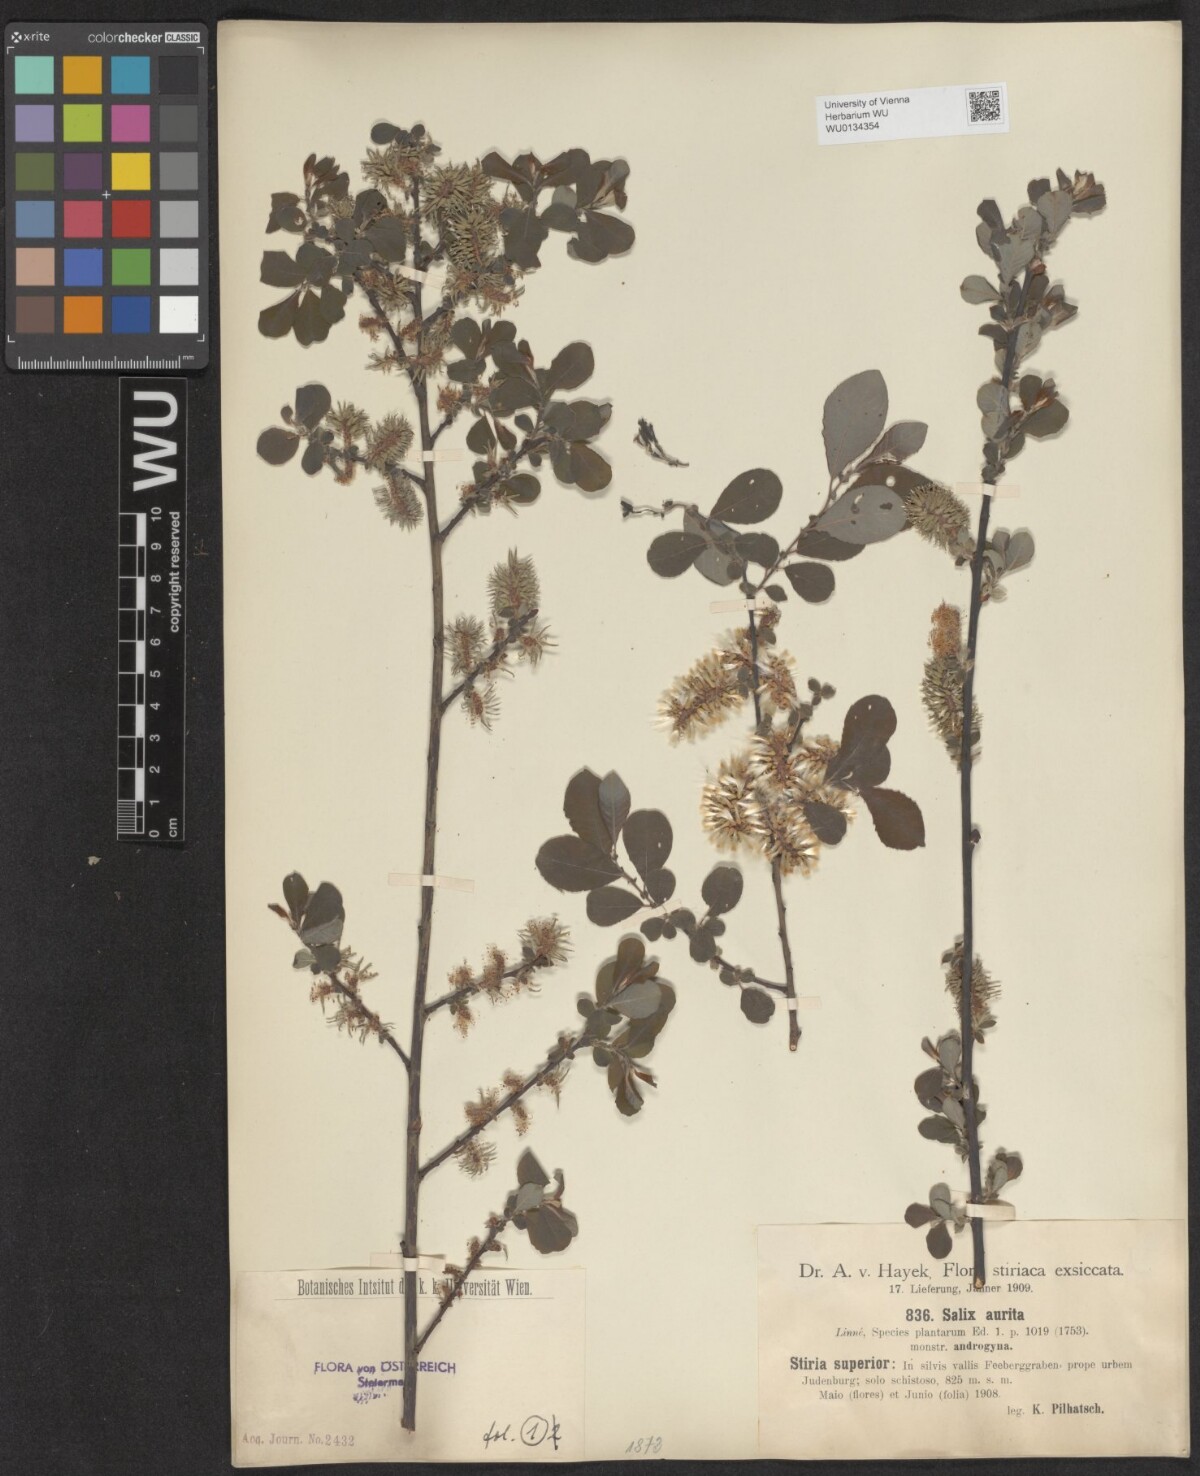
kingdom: Plantae
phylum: Tracheophyta
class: Magnoliopsida
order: Malpighiales
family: Salicaceae
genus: Salix
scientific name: Salix aurita
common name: Eared willow
